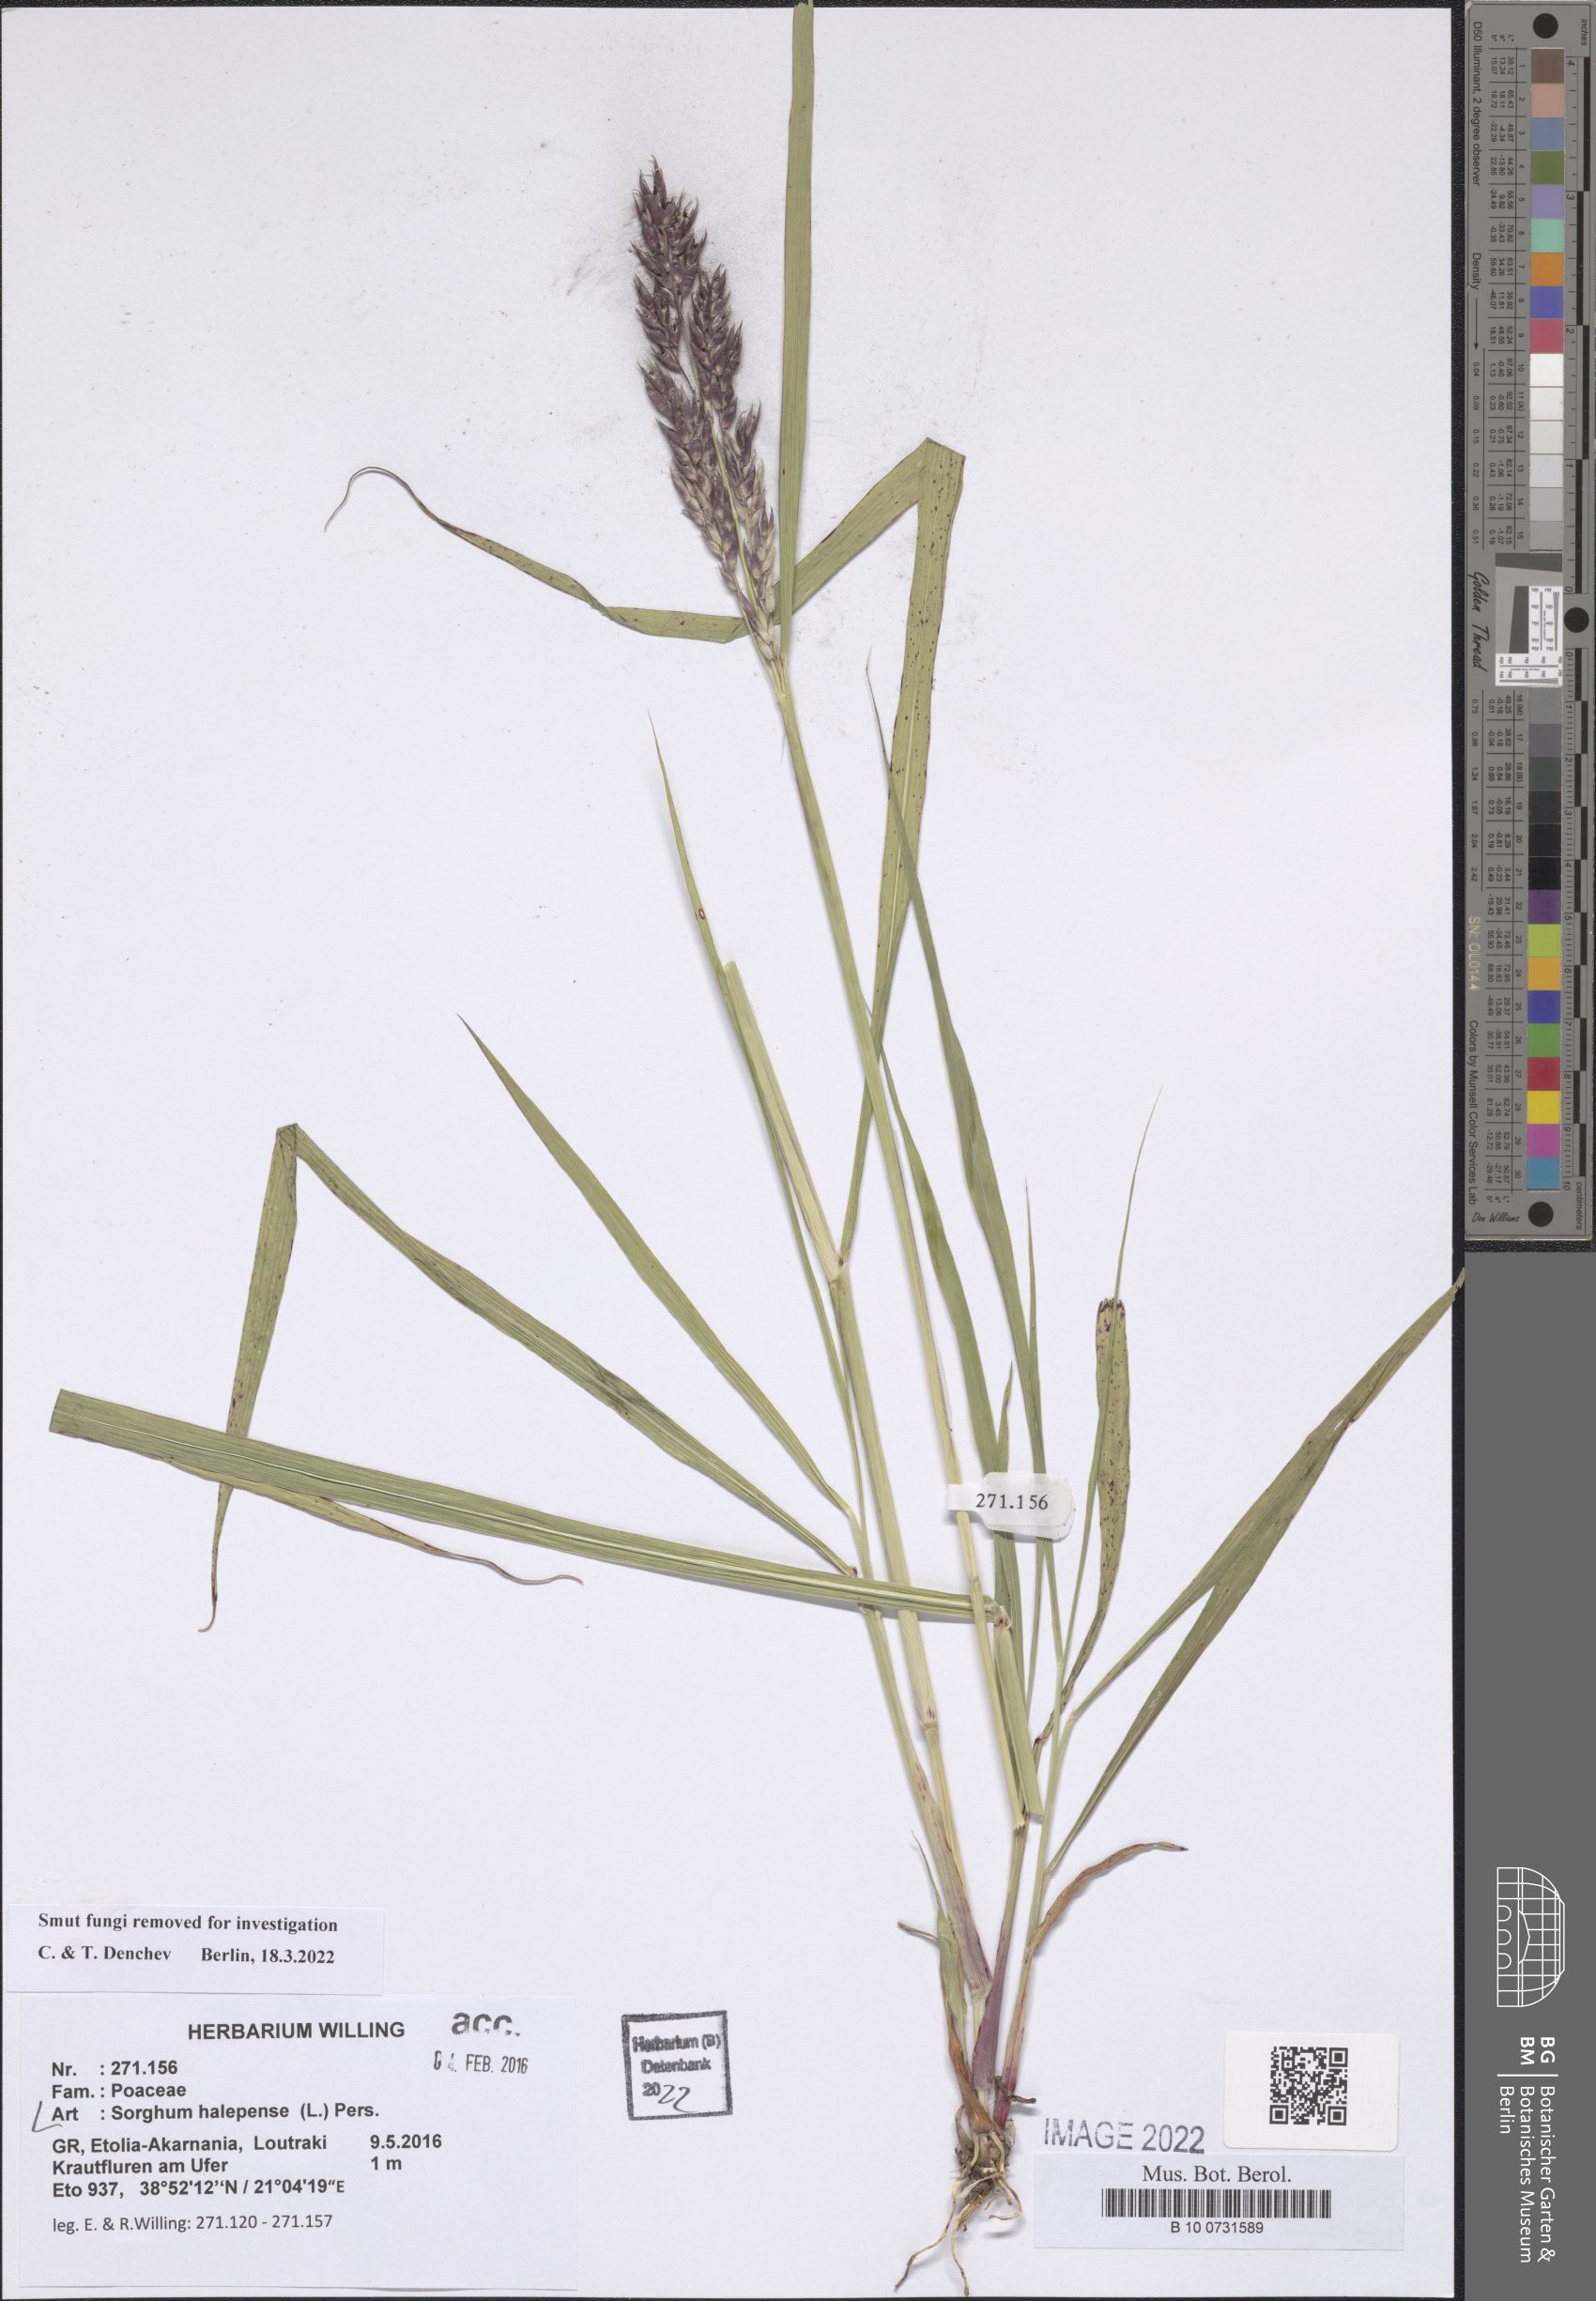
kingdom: Plantae
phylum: Tracheophyta
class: Liliopsida
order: Poales
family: Poaceae
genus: Sorghum
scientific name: Sorghum halepense
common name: Johnson-grass
